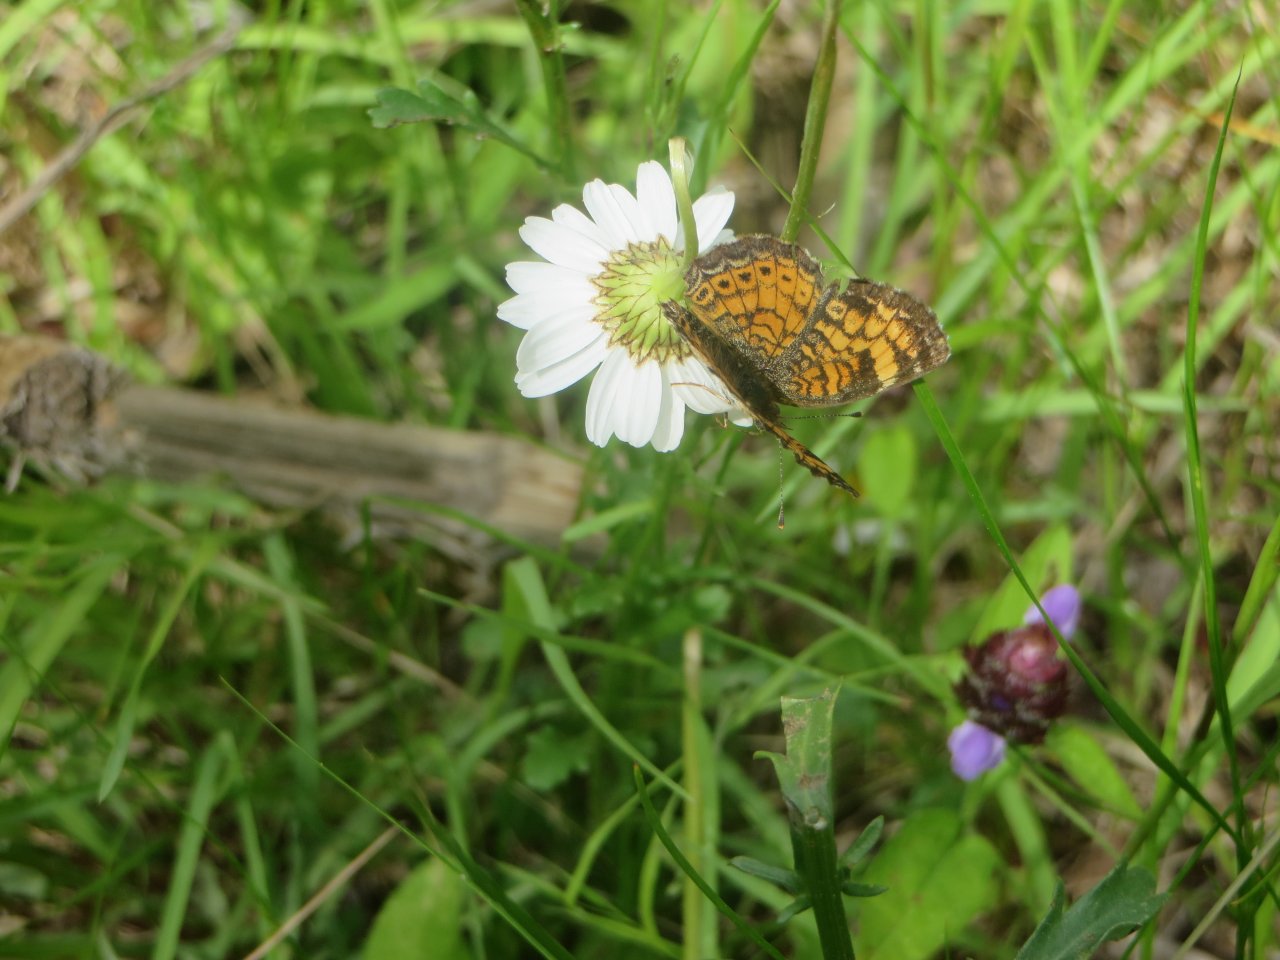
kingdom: Animalia
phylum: Arthropoda
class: Insecta
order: Lepidoptera
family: Nymphalidae
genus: Phyciodes
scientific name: Phyciodes tharos
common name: Pearl Crescent
